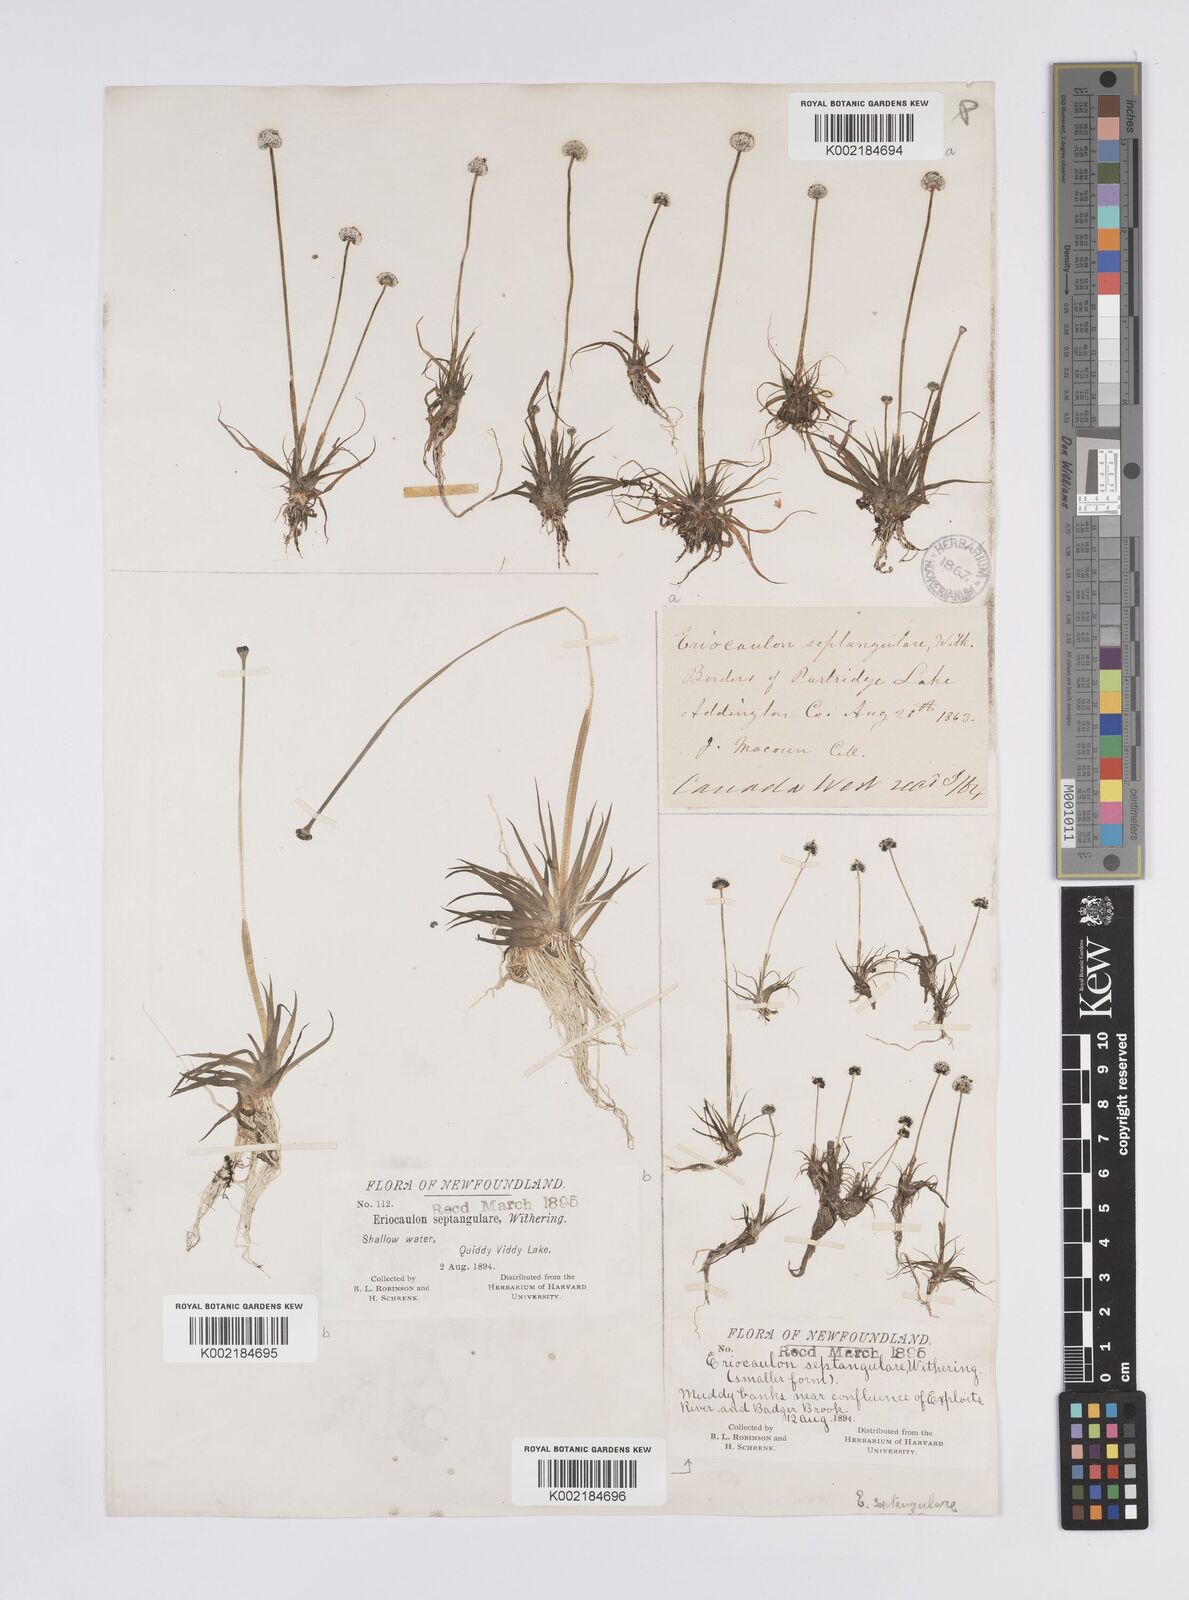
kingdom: Plantae
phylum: Tracheophyta
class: Liliopsida
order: Poales
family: Eriocaulaceae
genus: Eriocaulon
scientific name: Eriocaulon aquaticum
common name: Pipewort
